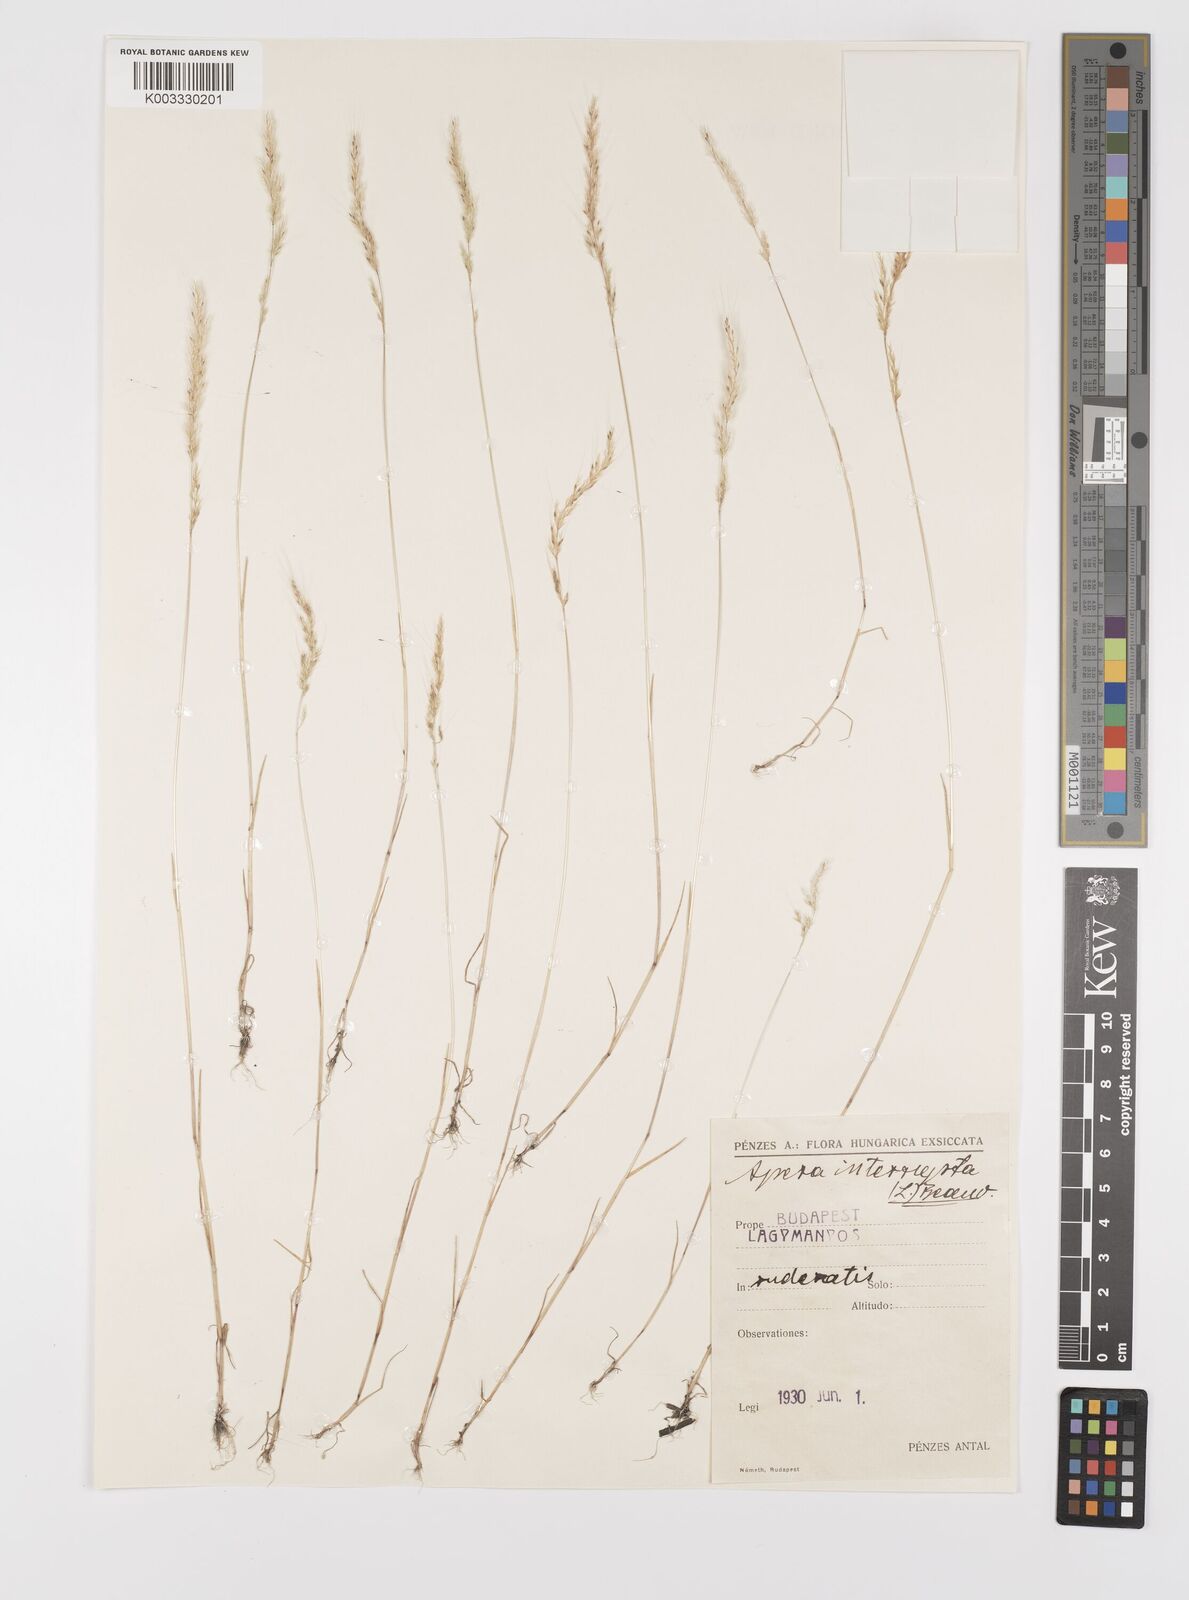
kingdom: Plantae
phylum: Tracheophyta
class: Liliopsida
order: Poales
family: Poaceae
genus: Apera
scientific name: Apera interrupta
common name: Dense silky-bent
